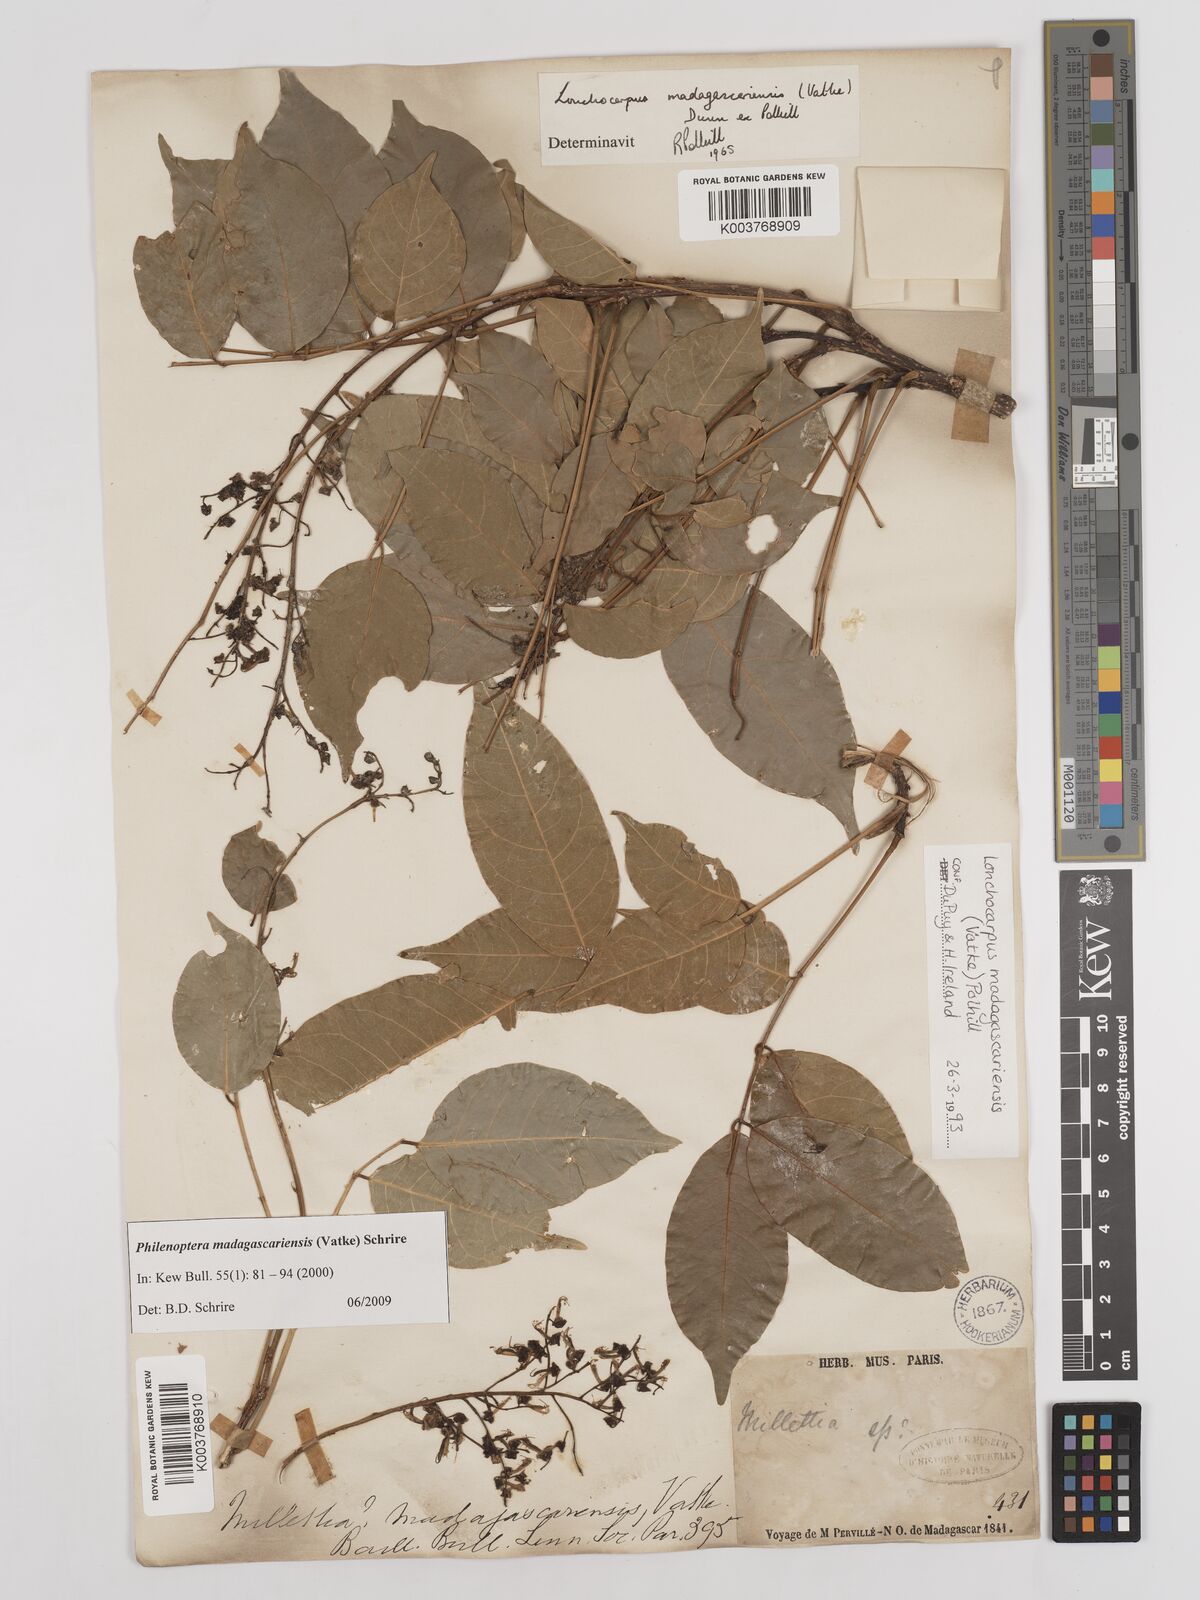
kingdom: Plantae
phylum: Tracheophyta
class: Magnoliopsida
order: Fabales
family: Fabaceae
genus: Lonchocarpus
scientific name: Lonchocarpus madagascariensis
